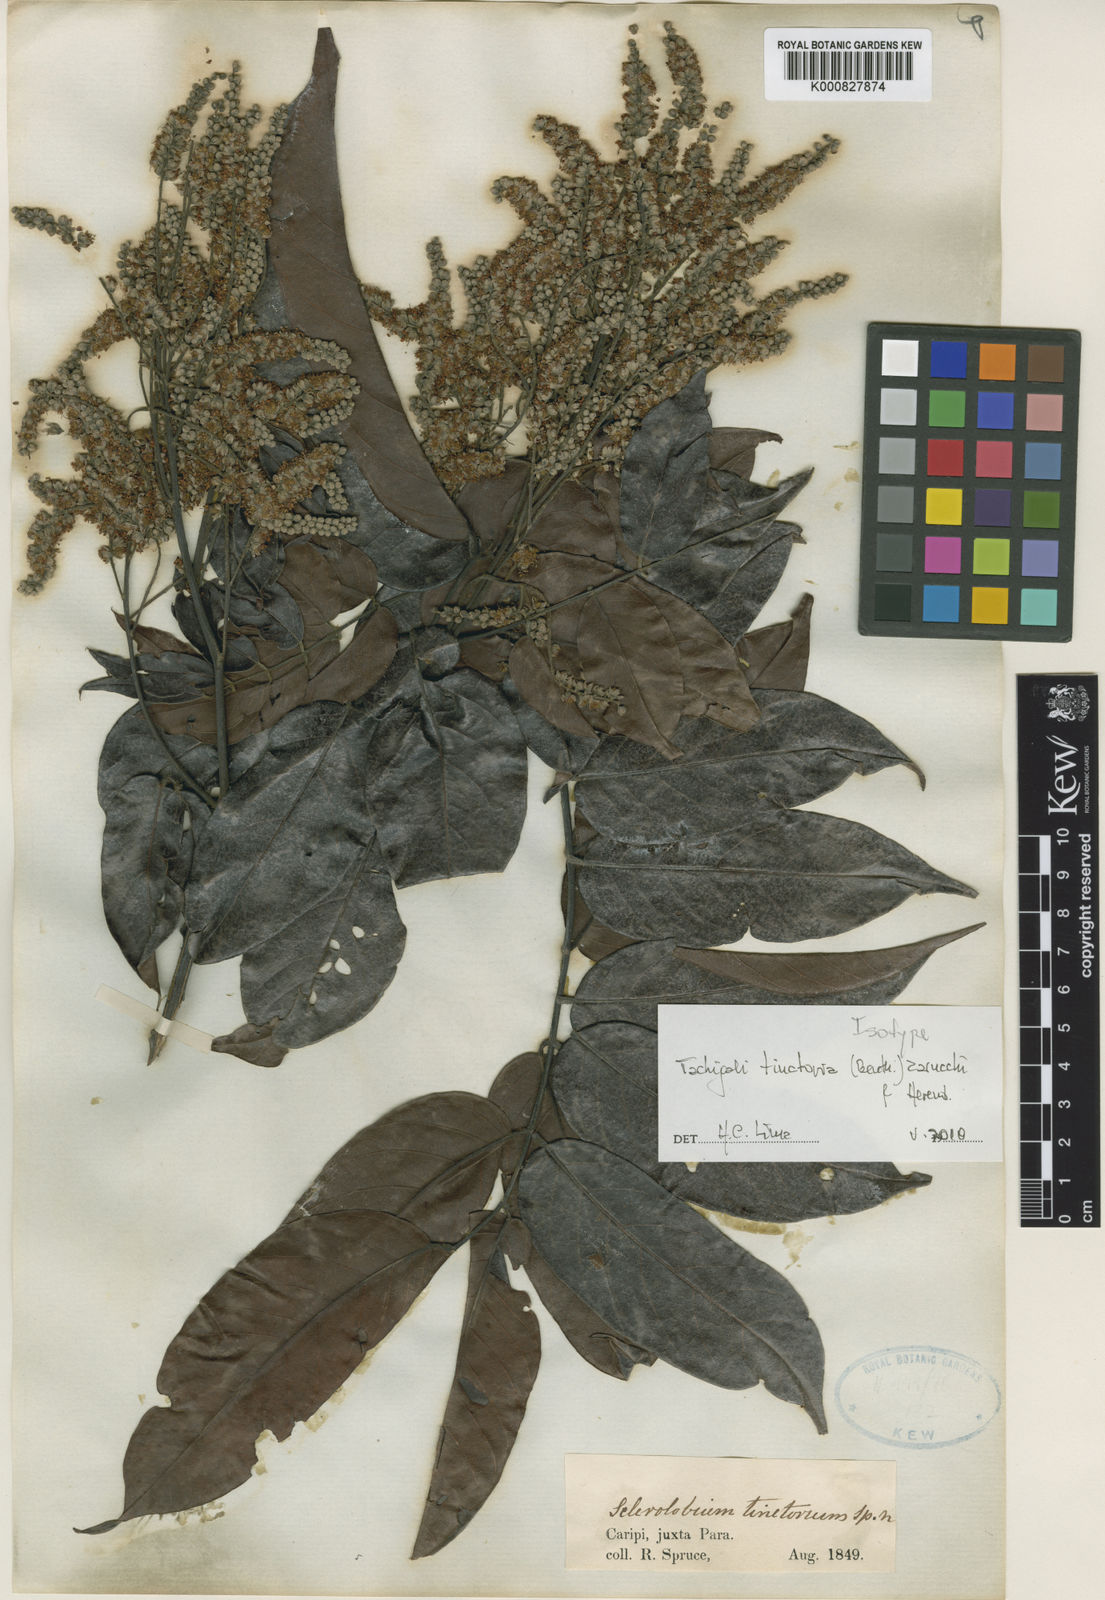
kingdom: Plantae
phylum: Tracheophyta
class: Magnoliopsida
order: Fabales
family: Fabaceae
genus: Tachigali
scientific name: Tachigali tinctoria
